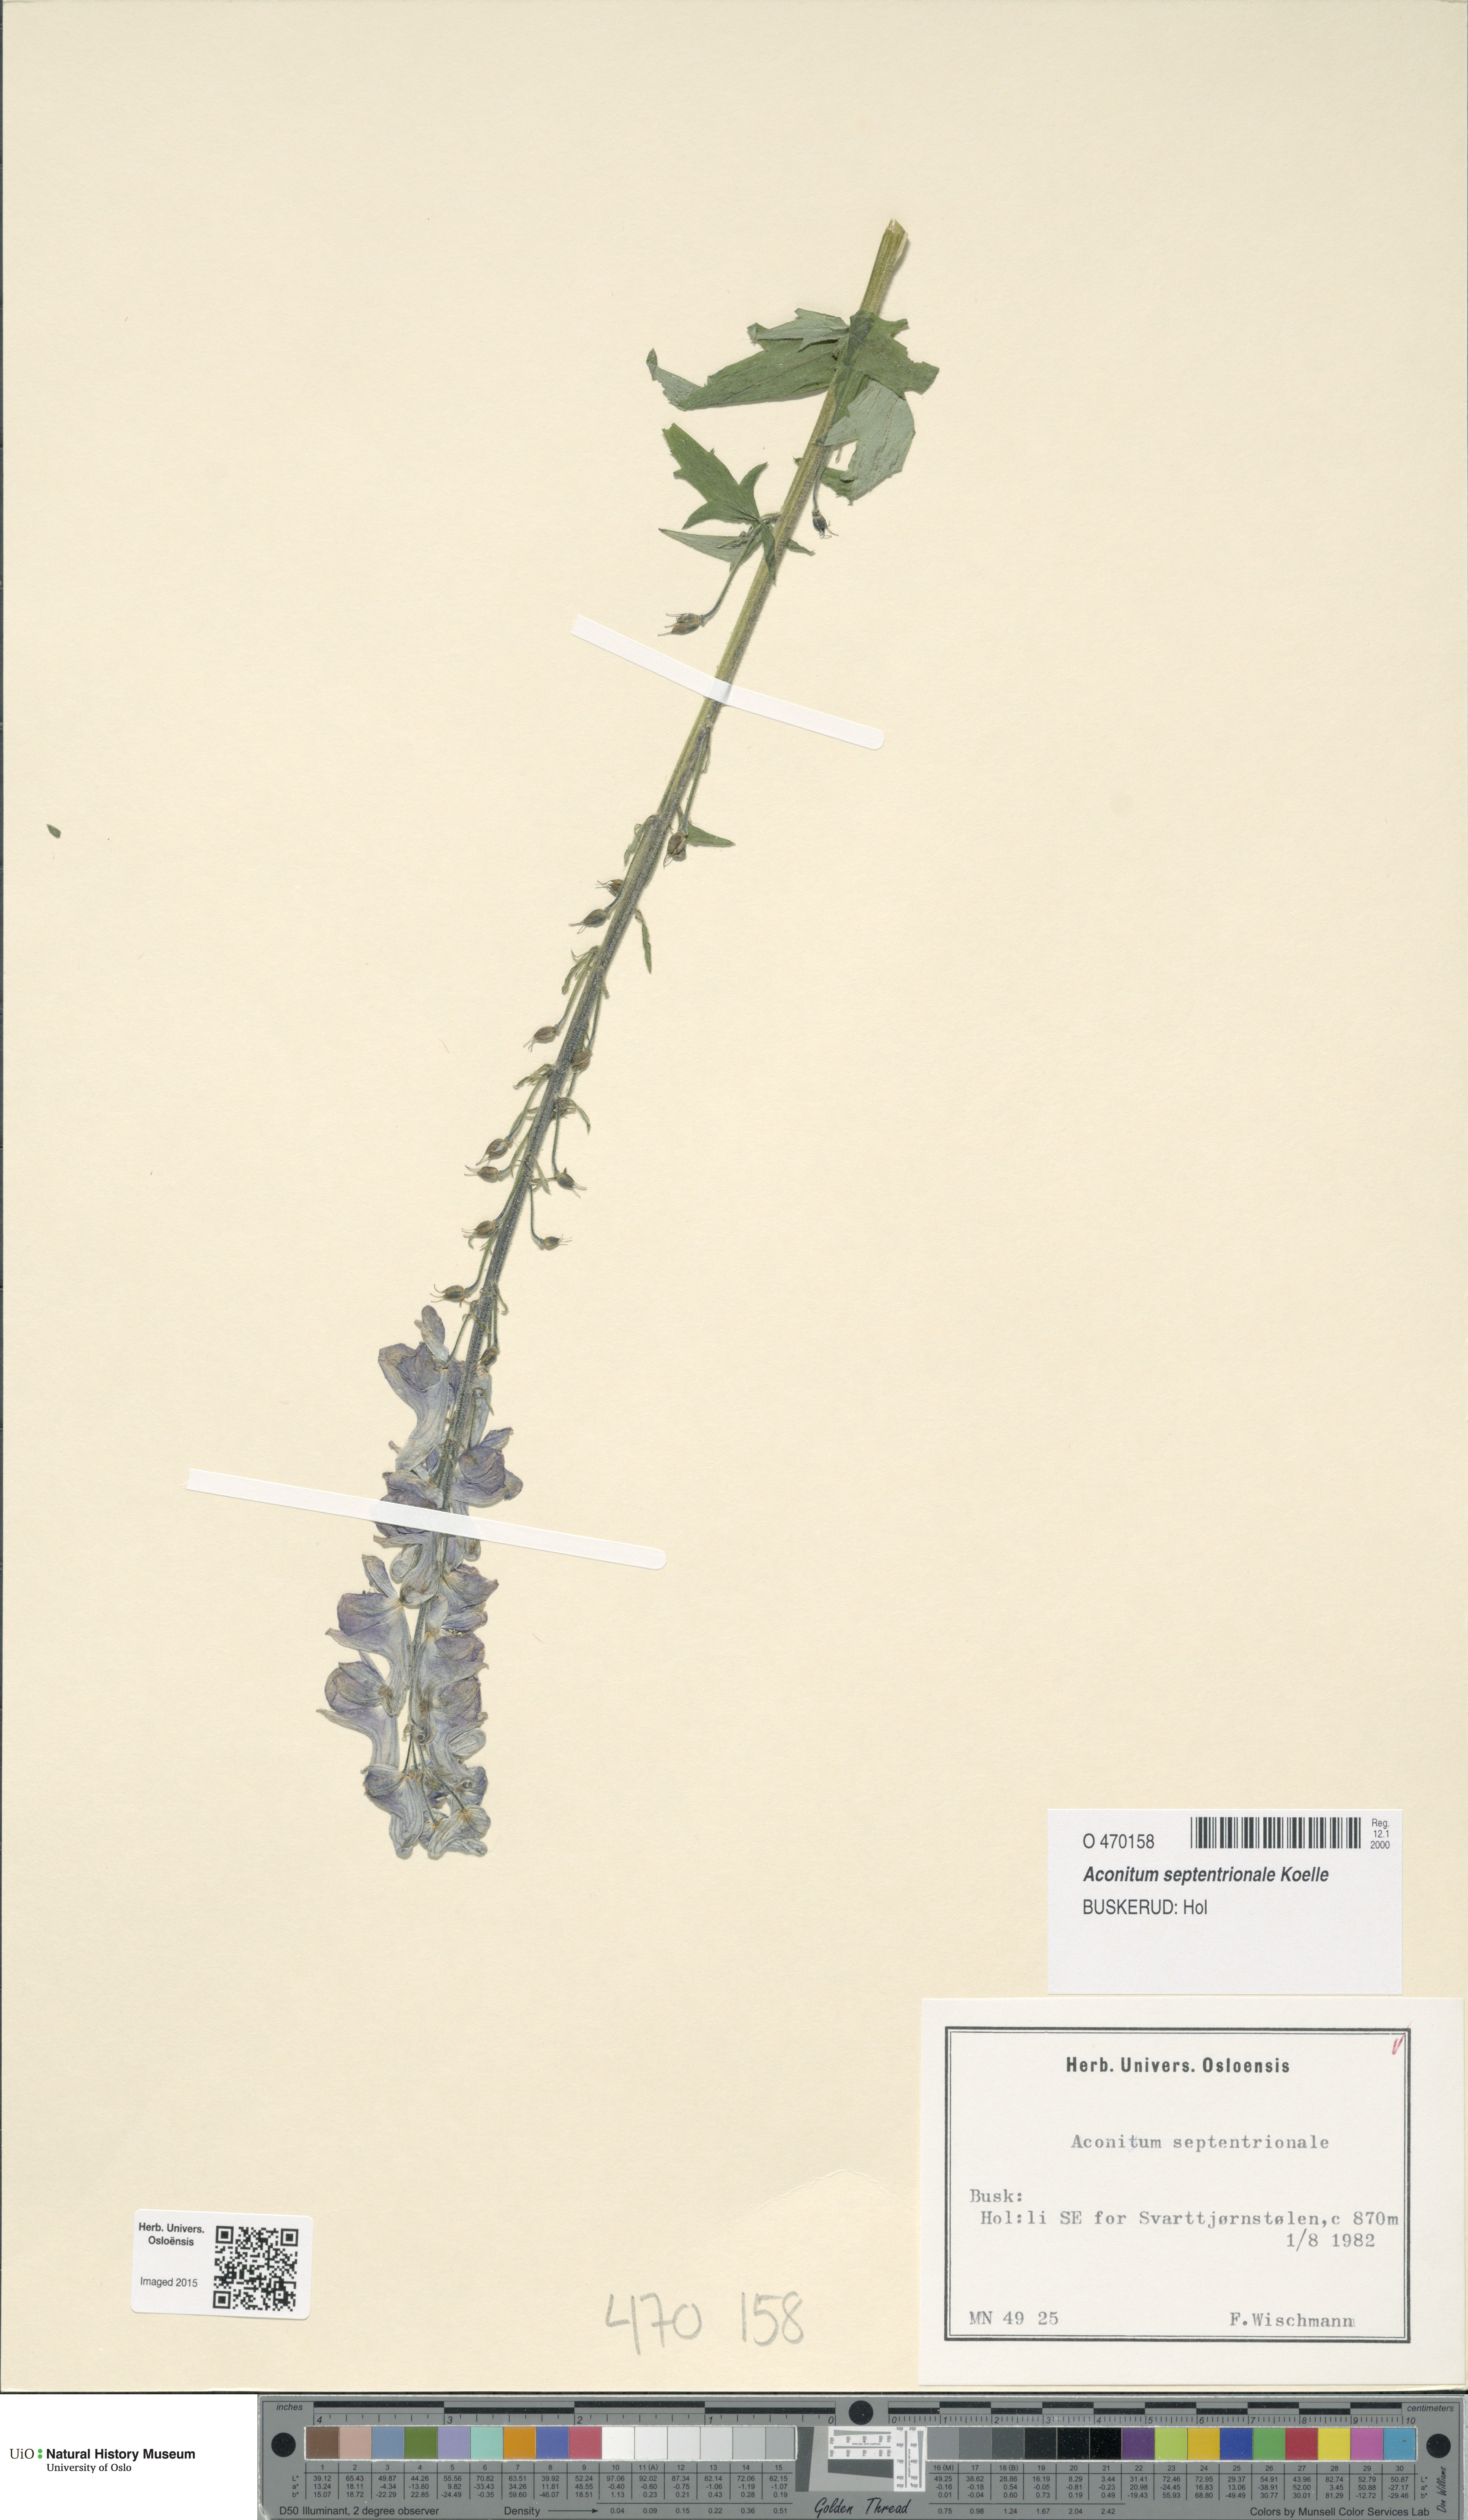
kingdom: Plantae
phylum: Tracheophyta
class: Magnoliopsida
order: Ranunculales
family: Ranunculaceae
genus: Aconitum
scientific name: Aconitum septentrionale
